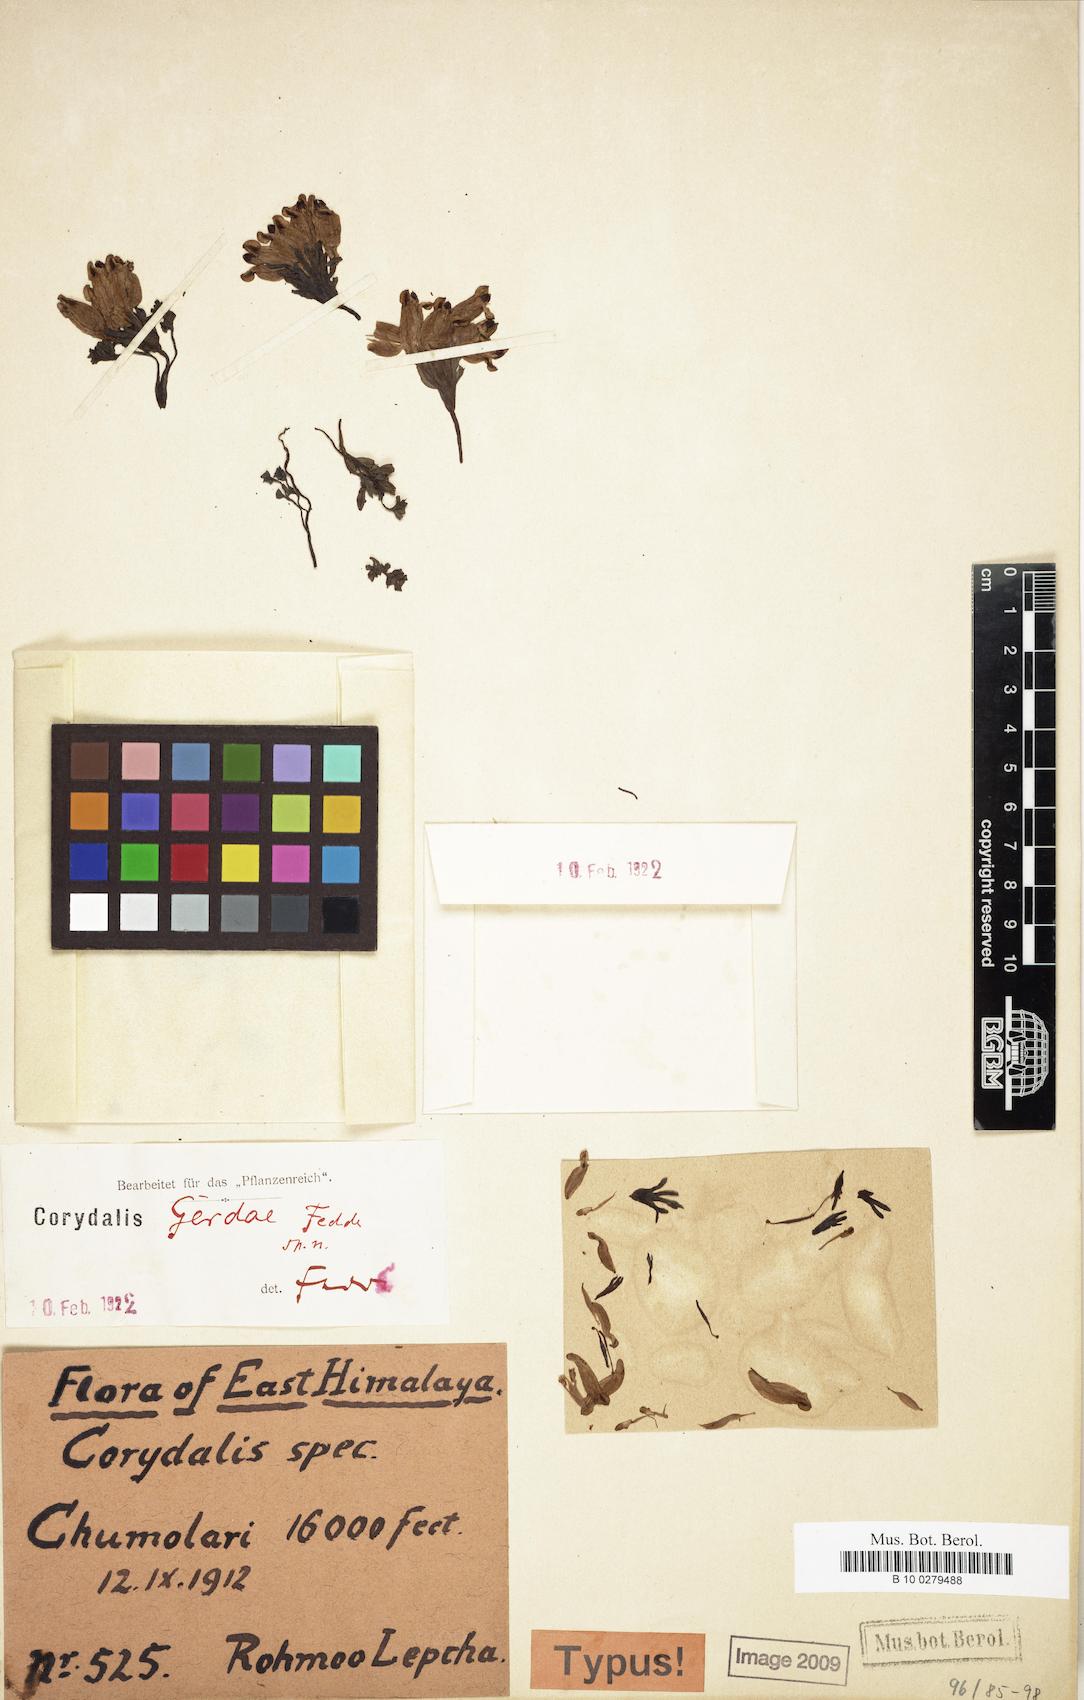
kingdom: Plantae
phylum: Tracheophyta
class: Magnoliopsida
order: Ranunculales
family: Papaveraceae
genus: Corydalis
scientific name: Corydalis latiflora
